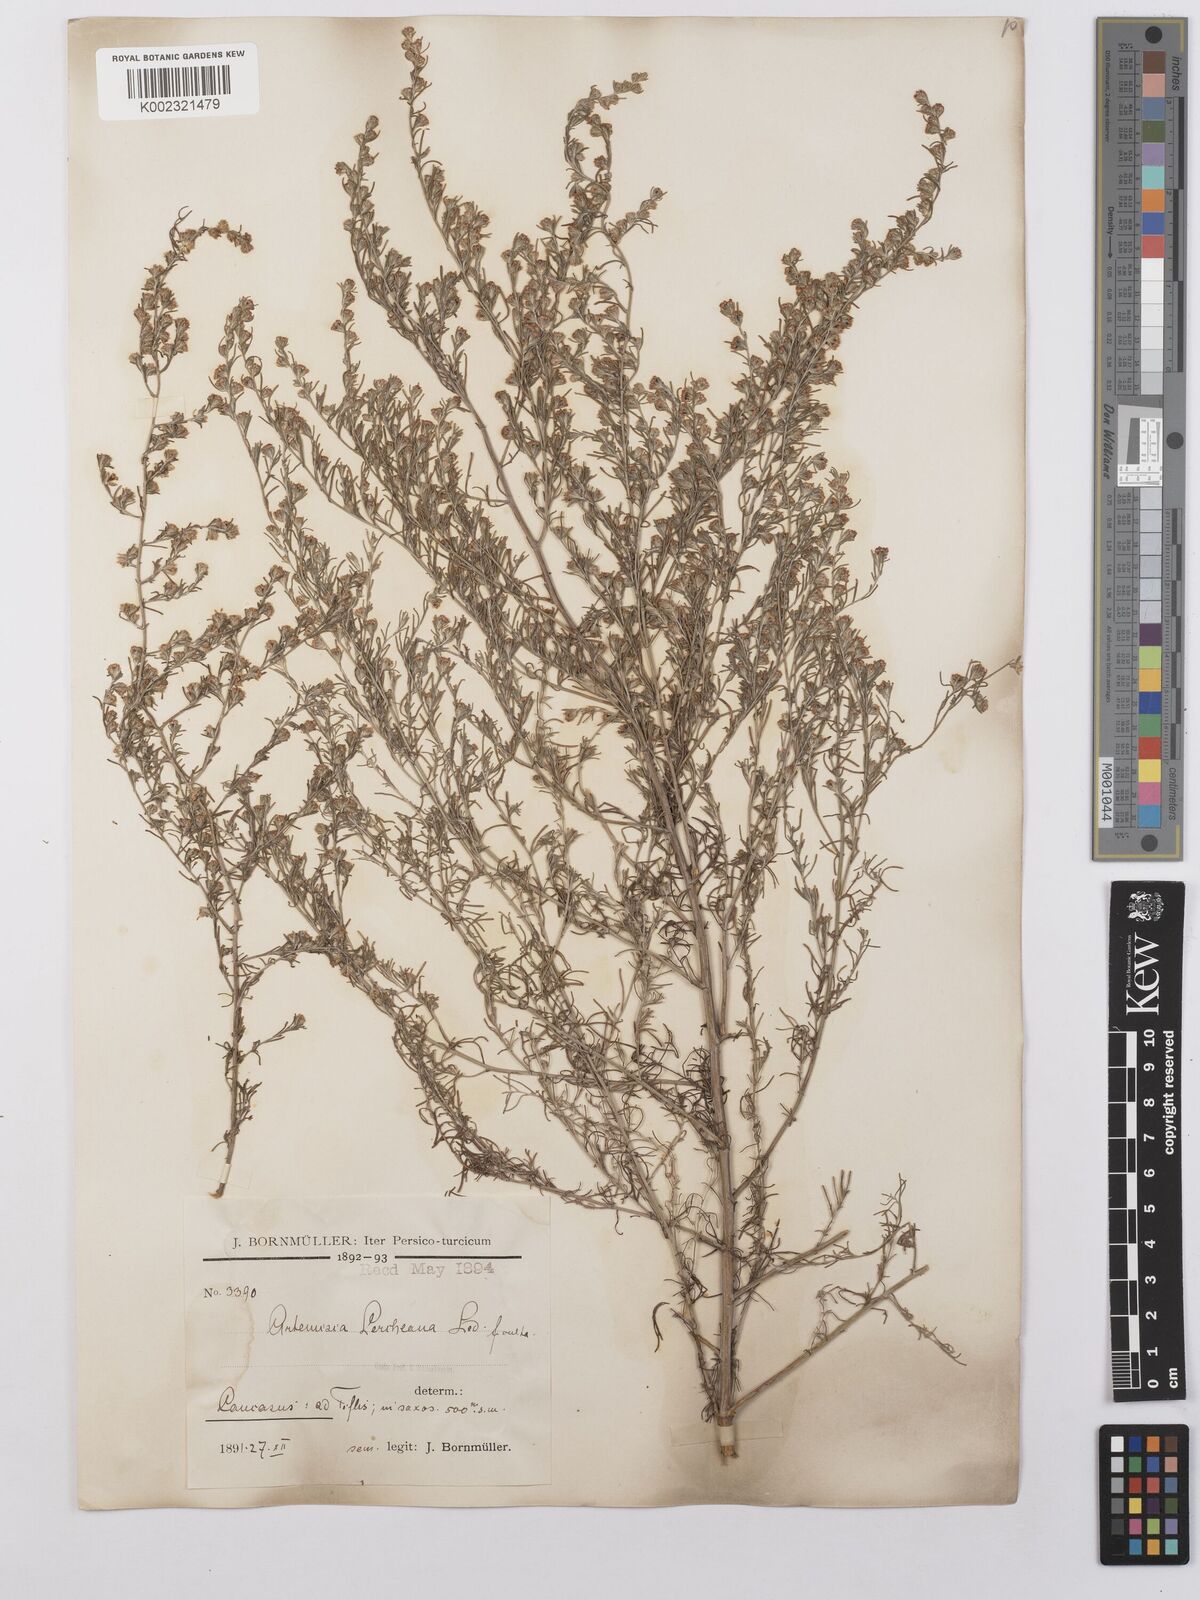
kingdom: Plantae
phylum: Tracheophyta
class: Magnoliopsida
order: Asterales
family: Asteraceae
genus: Artemisia
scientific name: Artemisia fragrans
